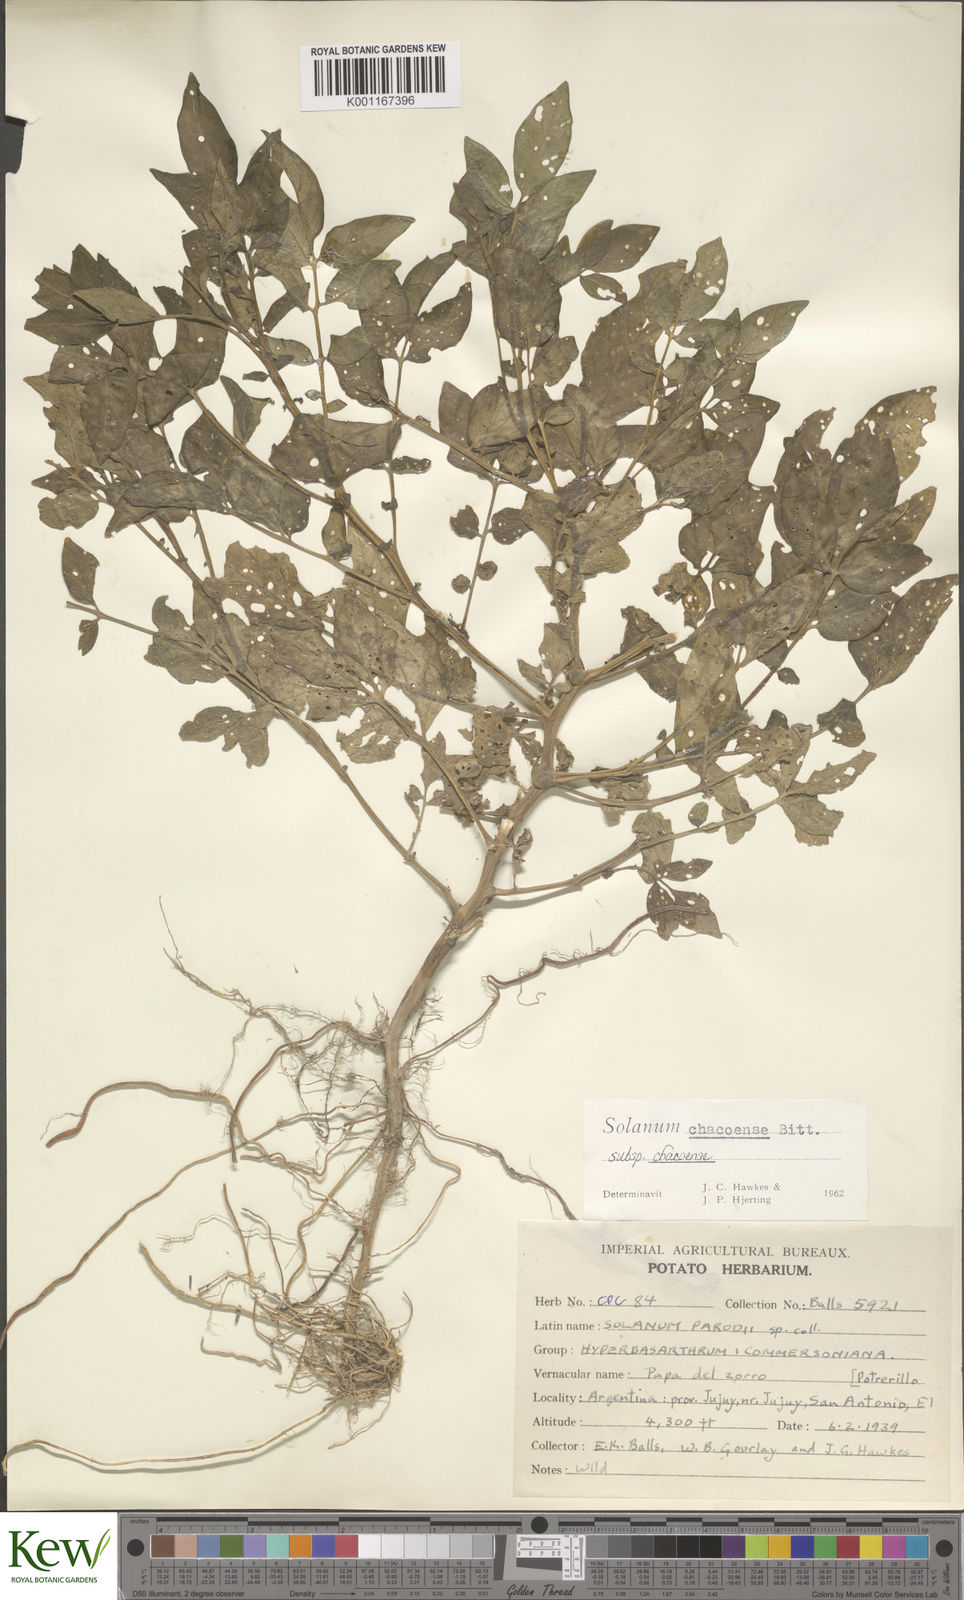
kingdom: Plantae
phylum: Tracheophyta
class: Magnoliopsida
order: Solanales
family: Solanaceae
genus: Solanum
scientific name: Solanum chacoense
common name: Chaco potato
